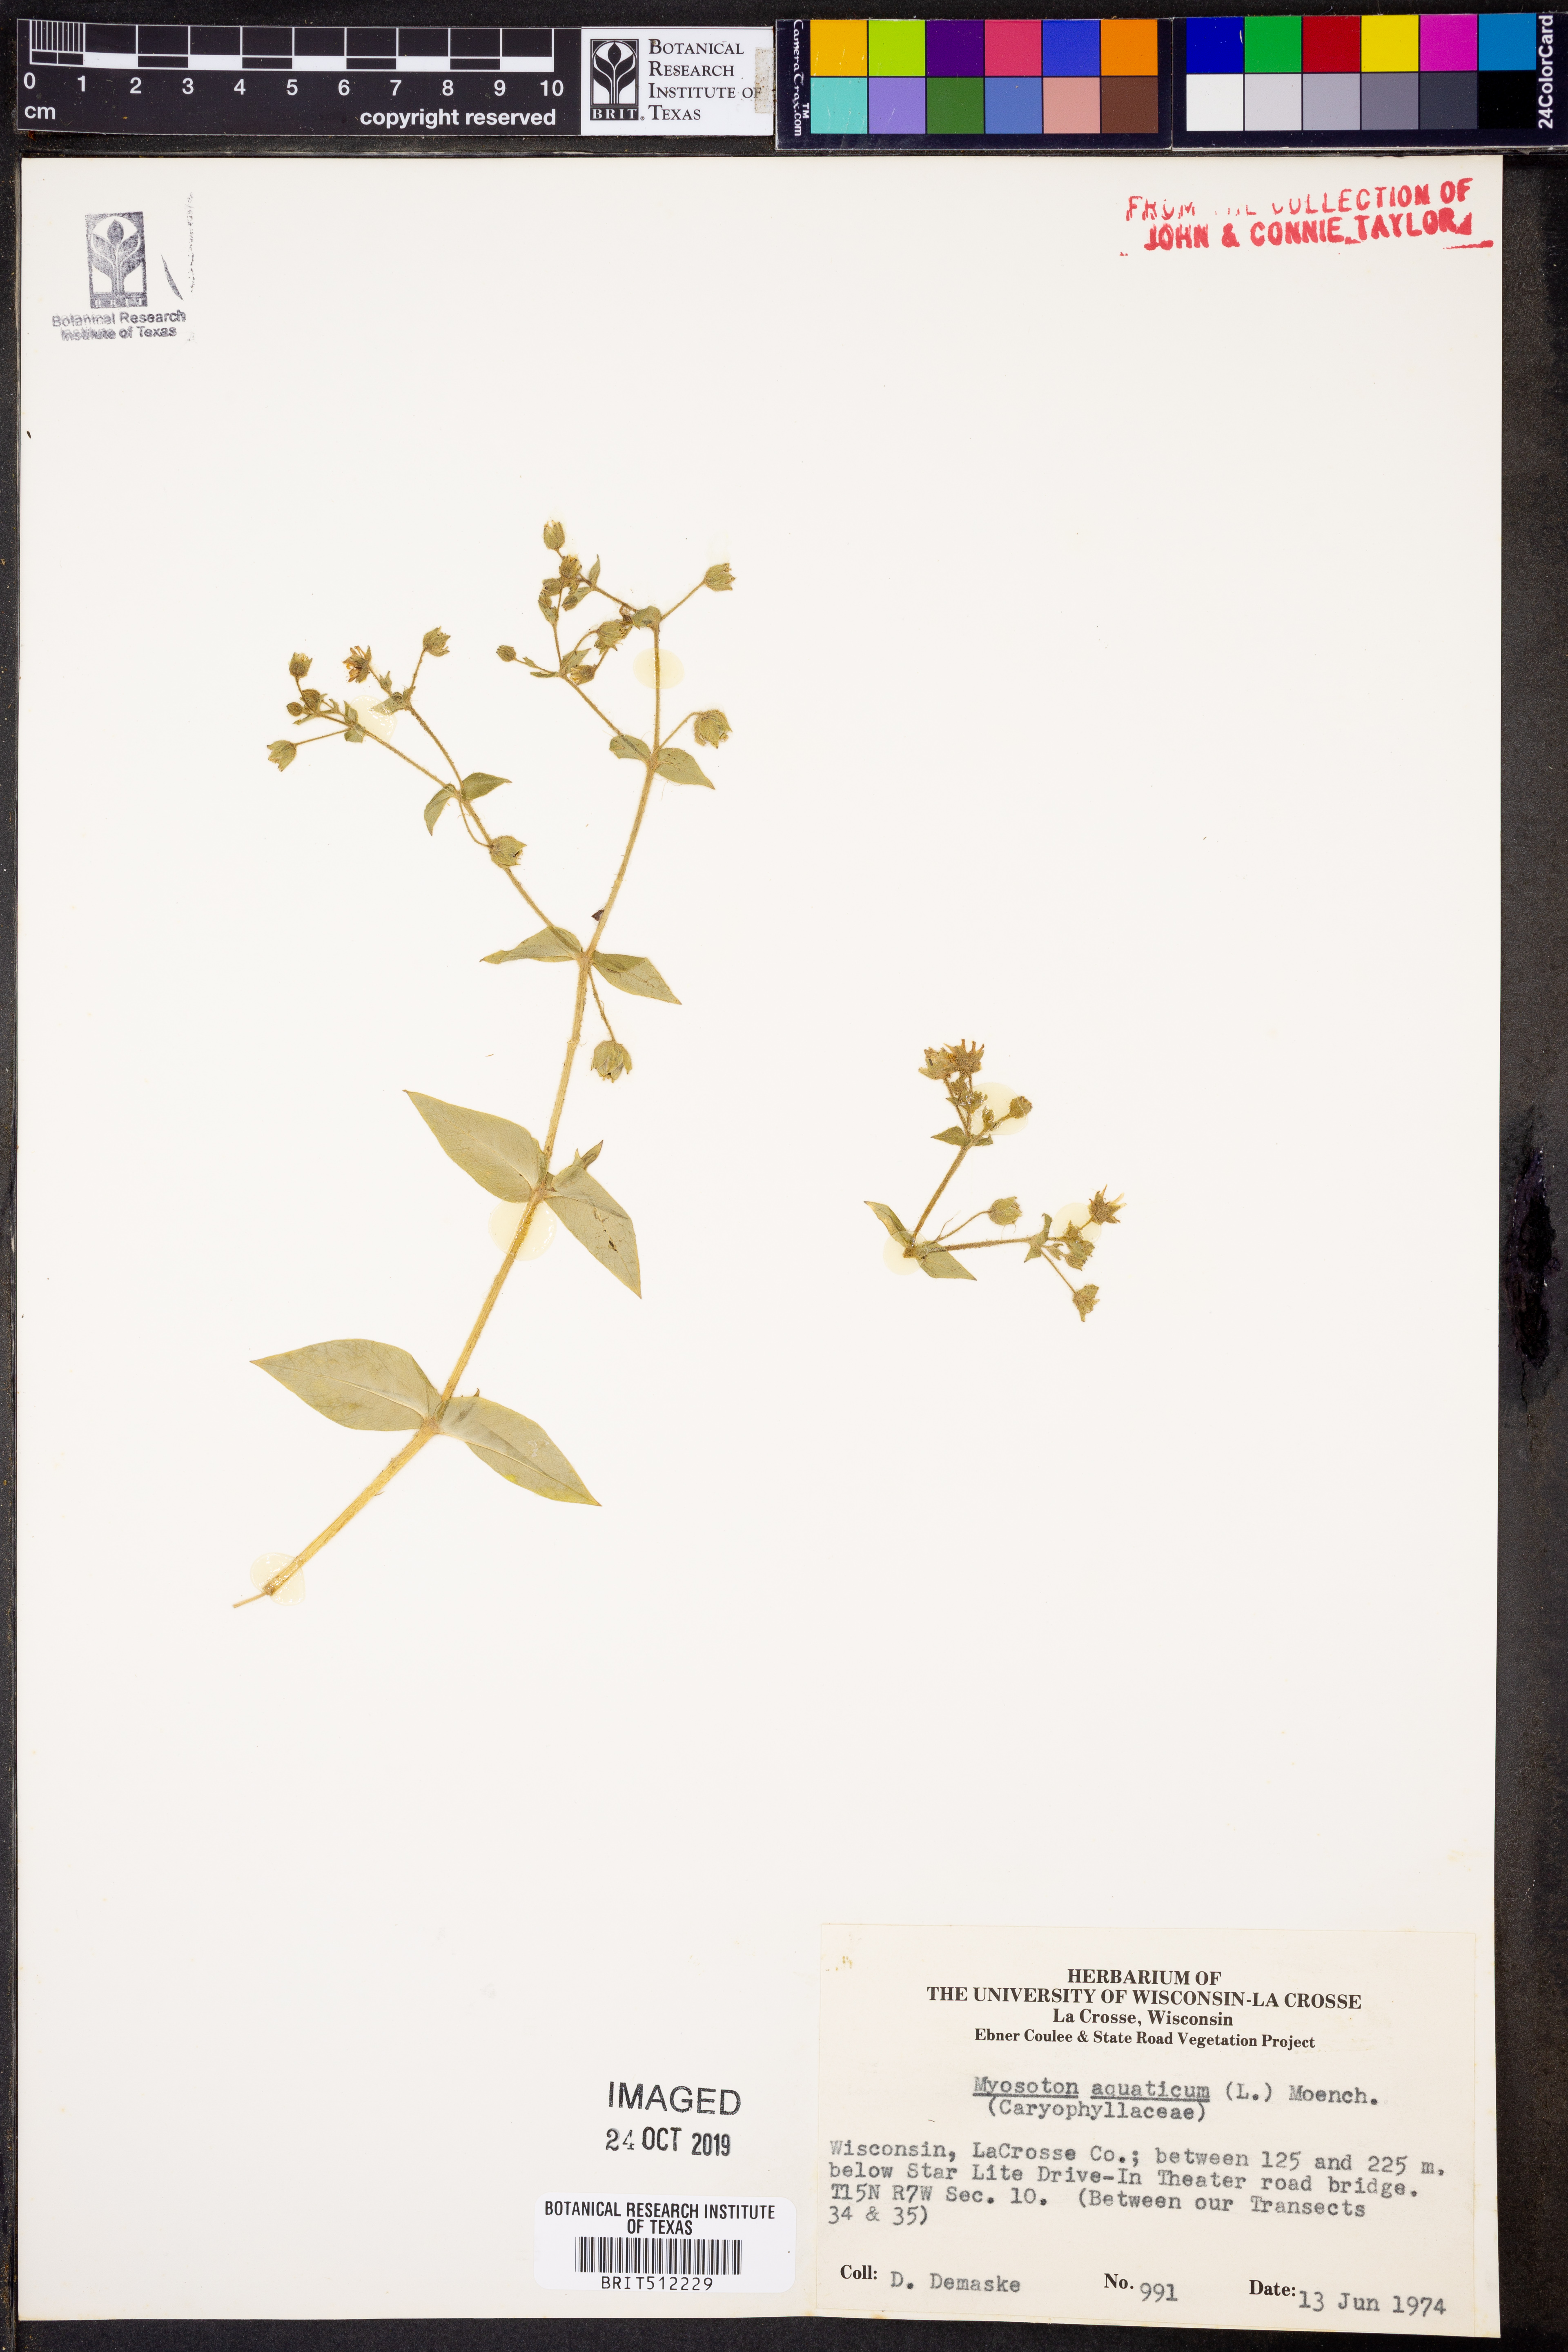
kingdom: Plantae
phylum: Tracheophyta
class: Magnoliopsida
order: Caryophyllales
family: Caryophyllaceae
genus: Stellaria
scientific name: Stellaria aquatica
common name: Water chickweed
